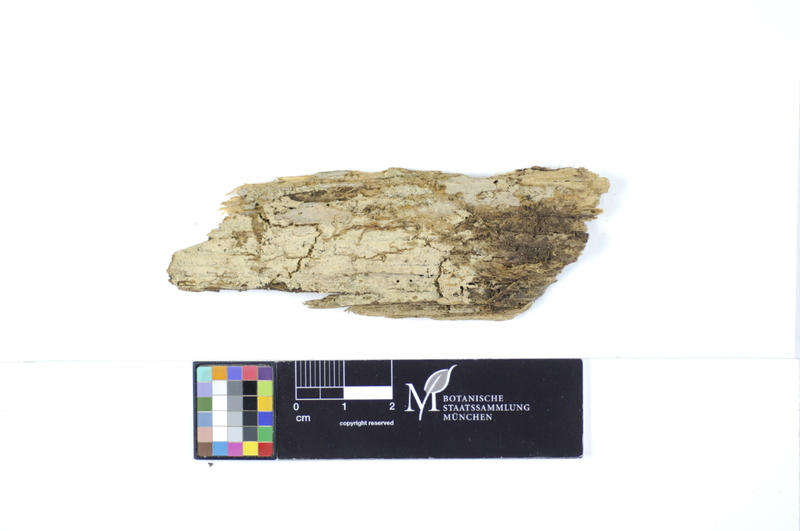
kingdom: Fungi
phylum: Basidiomycota
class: Agaricomycetes
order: Cantharellales
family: Botryobasidiaceae
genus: Botryobasidium
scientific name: Botryobasidium subcoronatum
